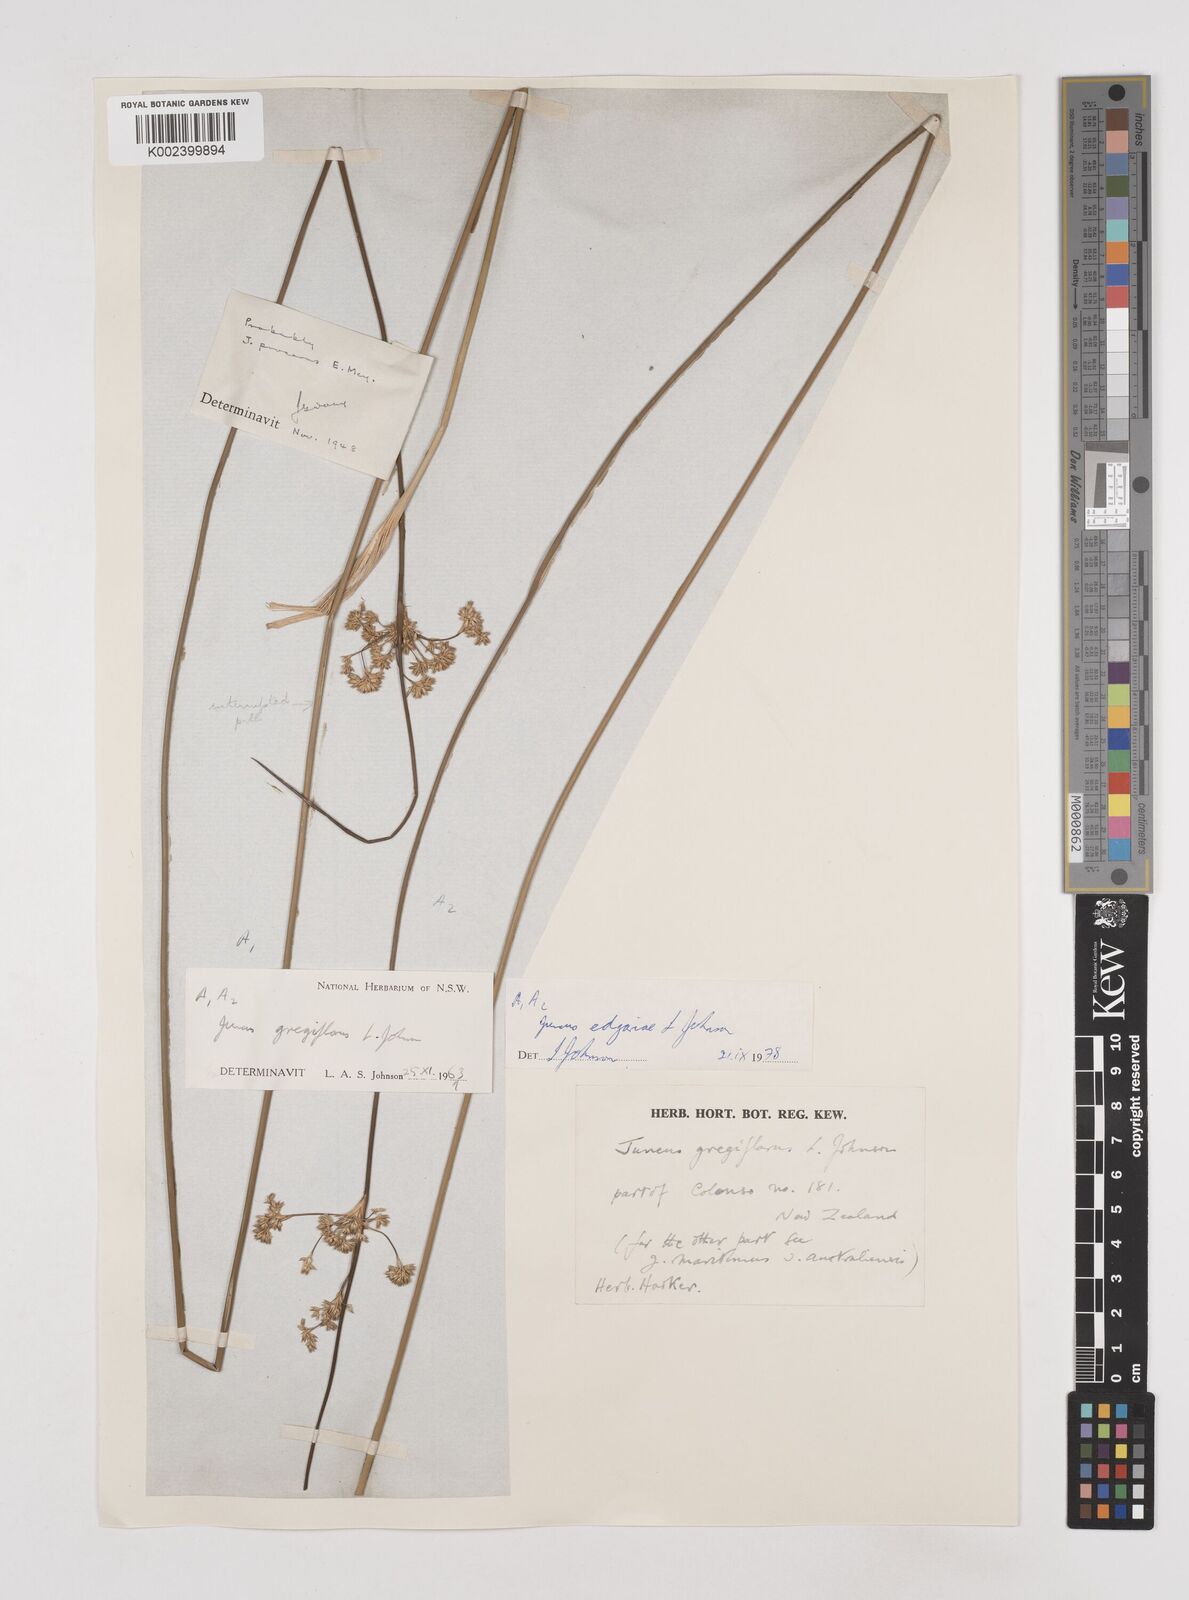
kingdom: Plantae
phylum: Tracheophyta
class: Liliopsida
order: Poales
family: Juncaceae
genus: Juncus
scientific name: Juncus edgariae
